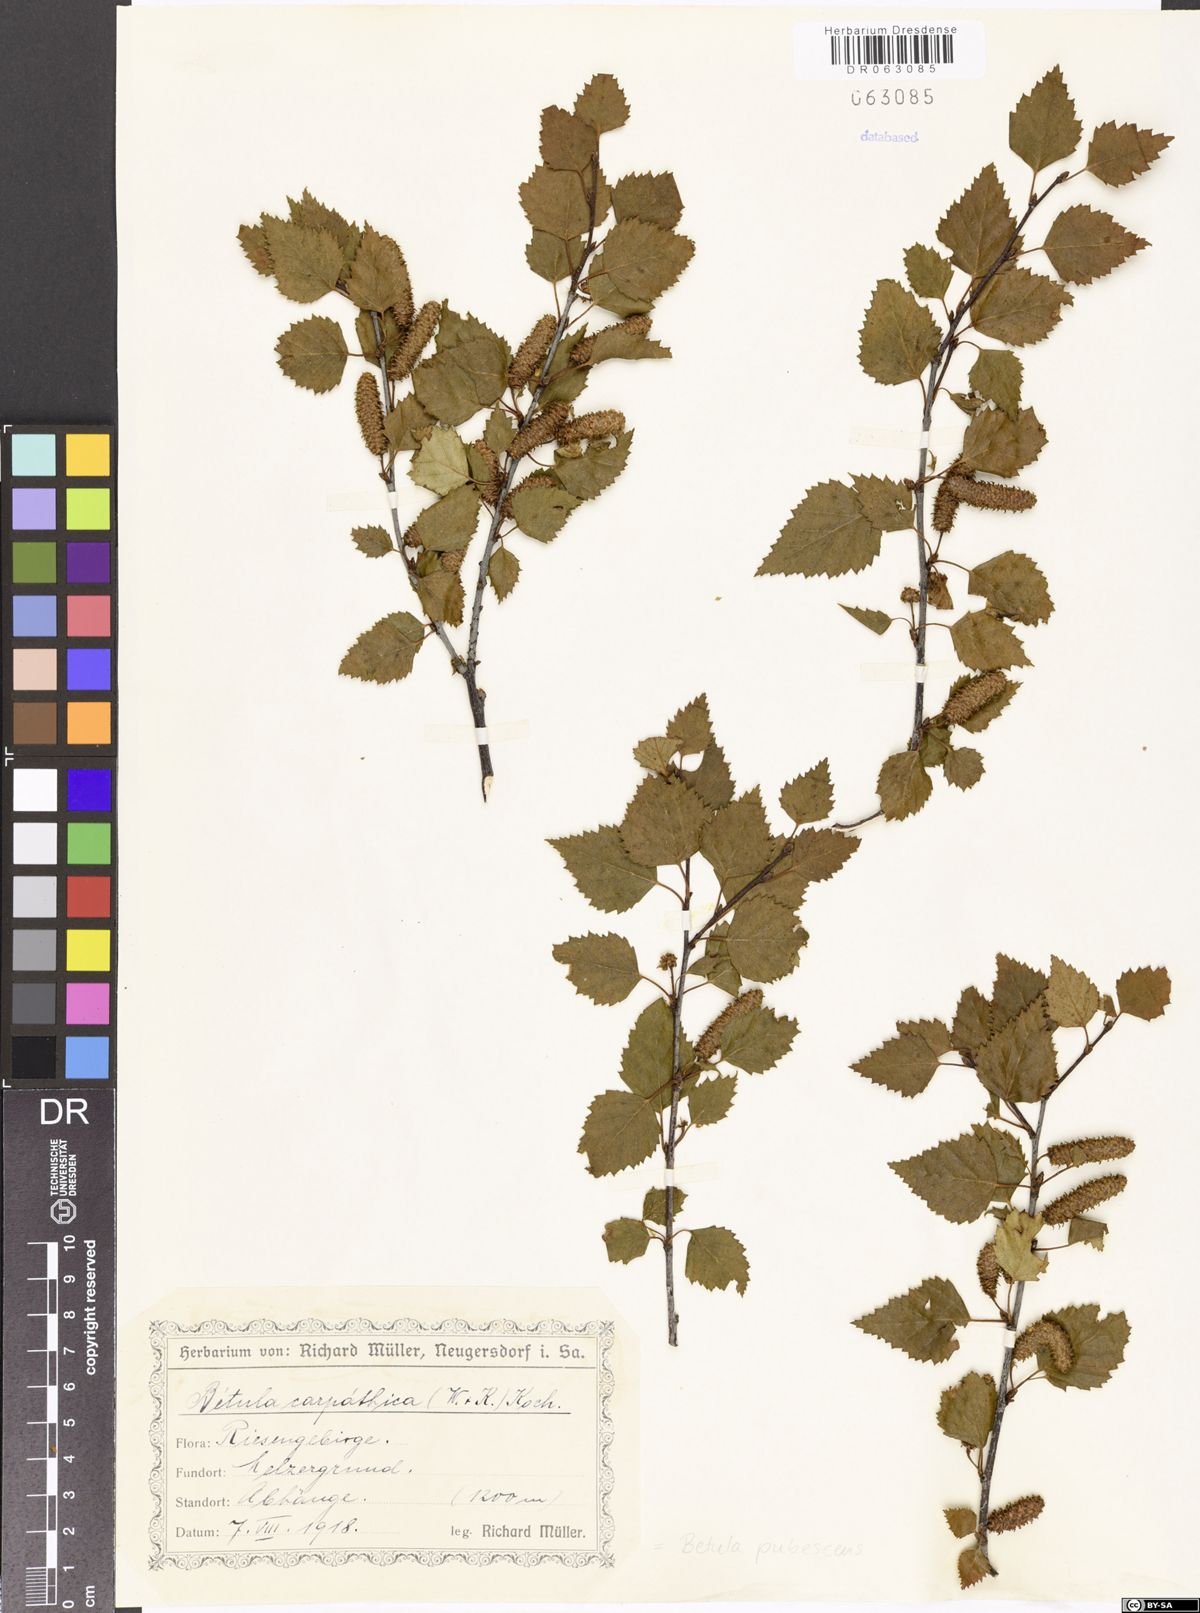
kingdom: Plantae
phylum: Tracheophyta
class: Magnoliopsida
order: Fagales
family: Betulaceae
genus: Betula
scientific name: Betula pubescens
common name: Downy birch
